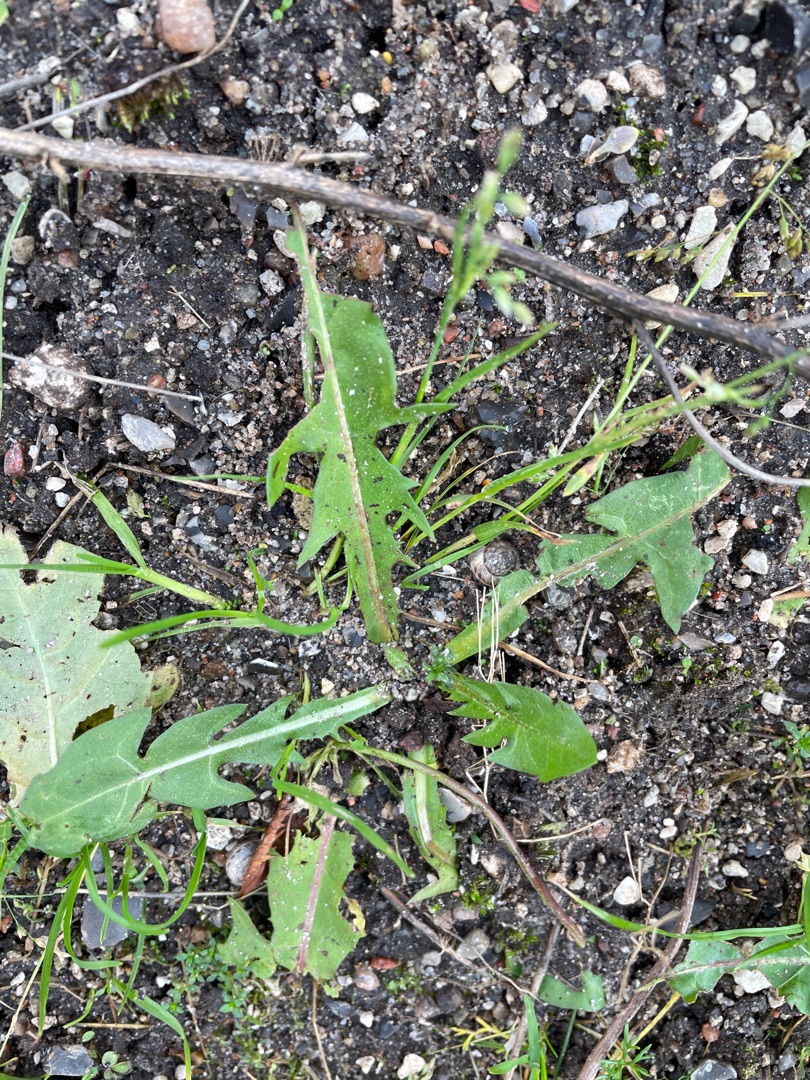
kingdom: Plantae
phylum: Tracheophyta
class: Magnoliopsida
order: Asterales
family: Asteraceae
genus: Taraxacum
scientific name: Taraxacum
